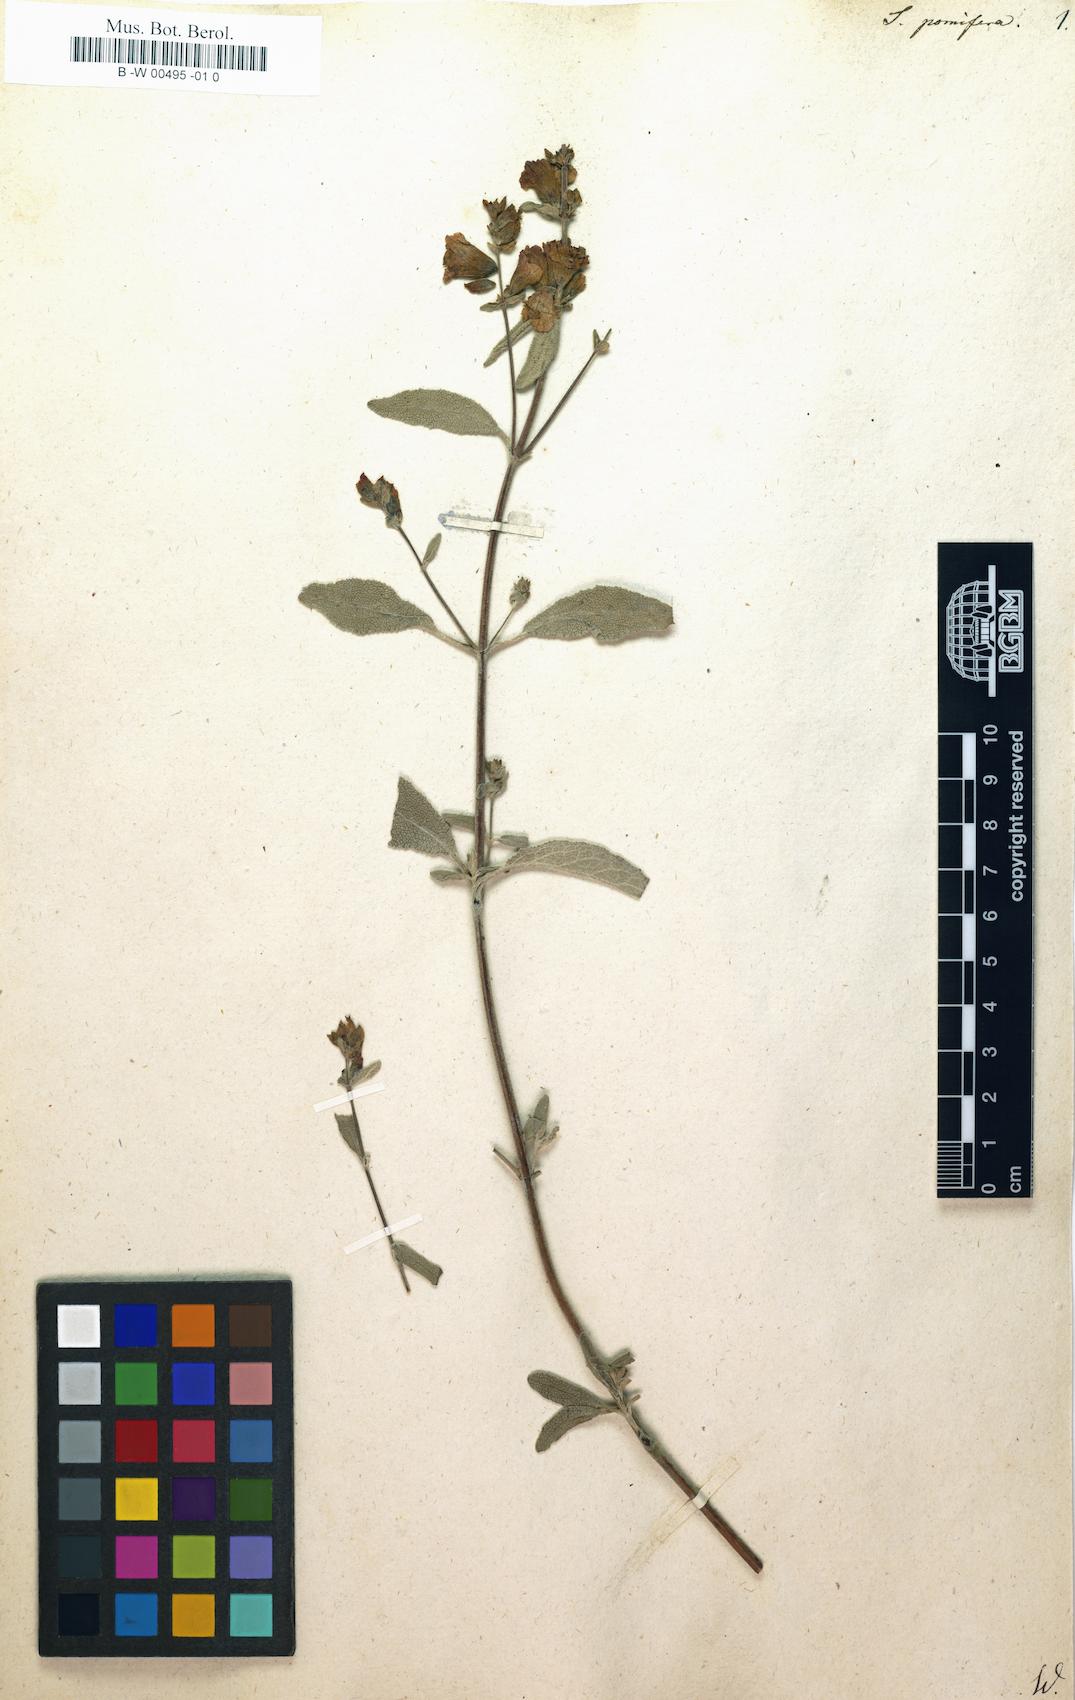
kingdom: Plantae
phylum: Tracheophyta
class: Magnoliopsida
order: Lamiales
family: Lamiaceae
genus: Salvia
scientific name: Salvia pomifera
